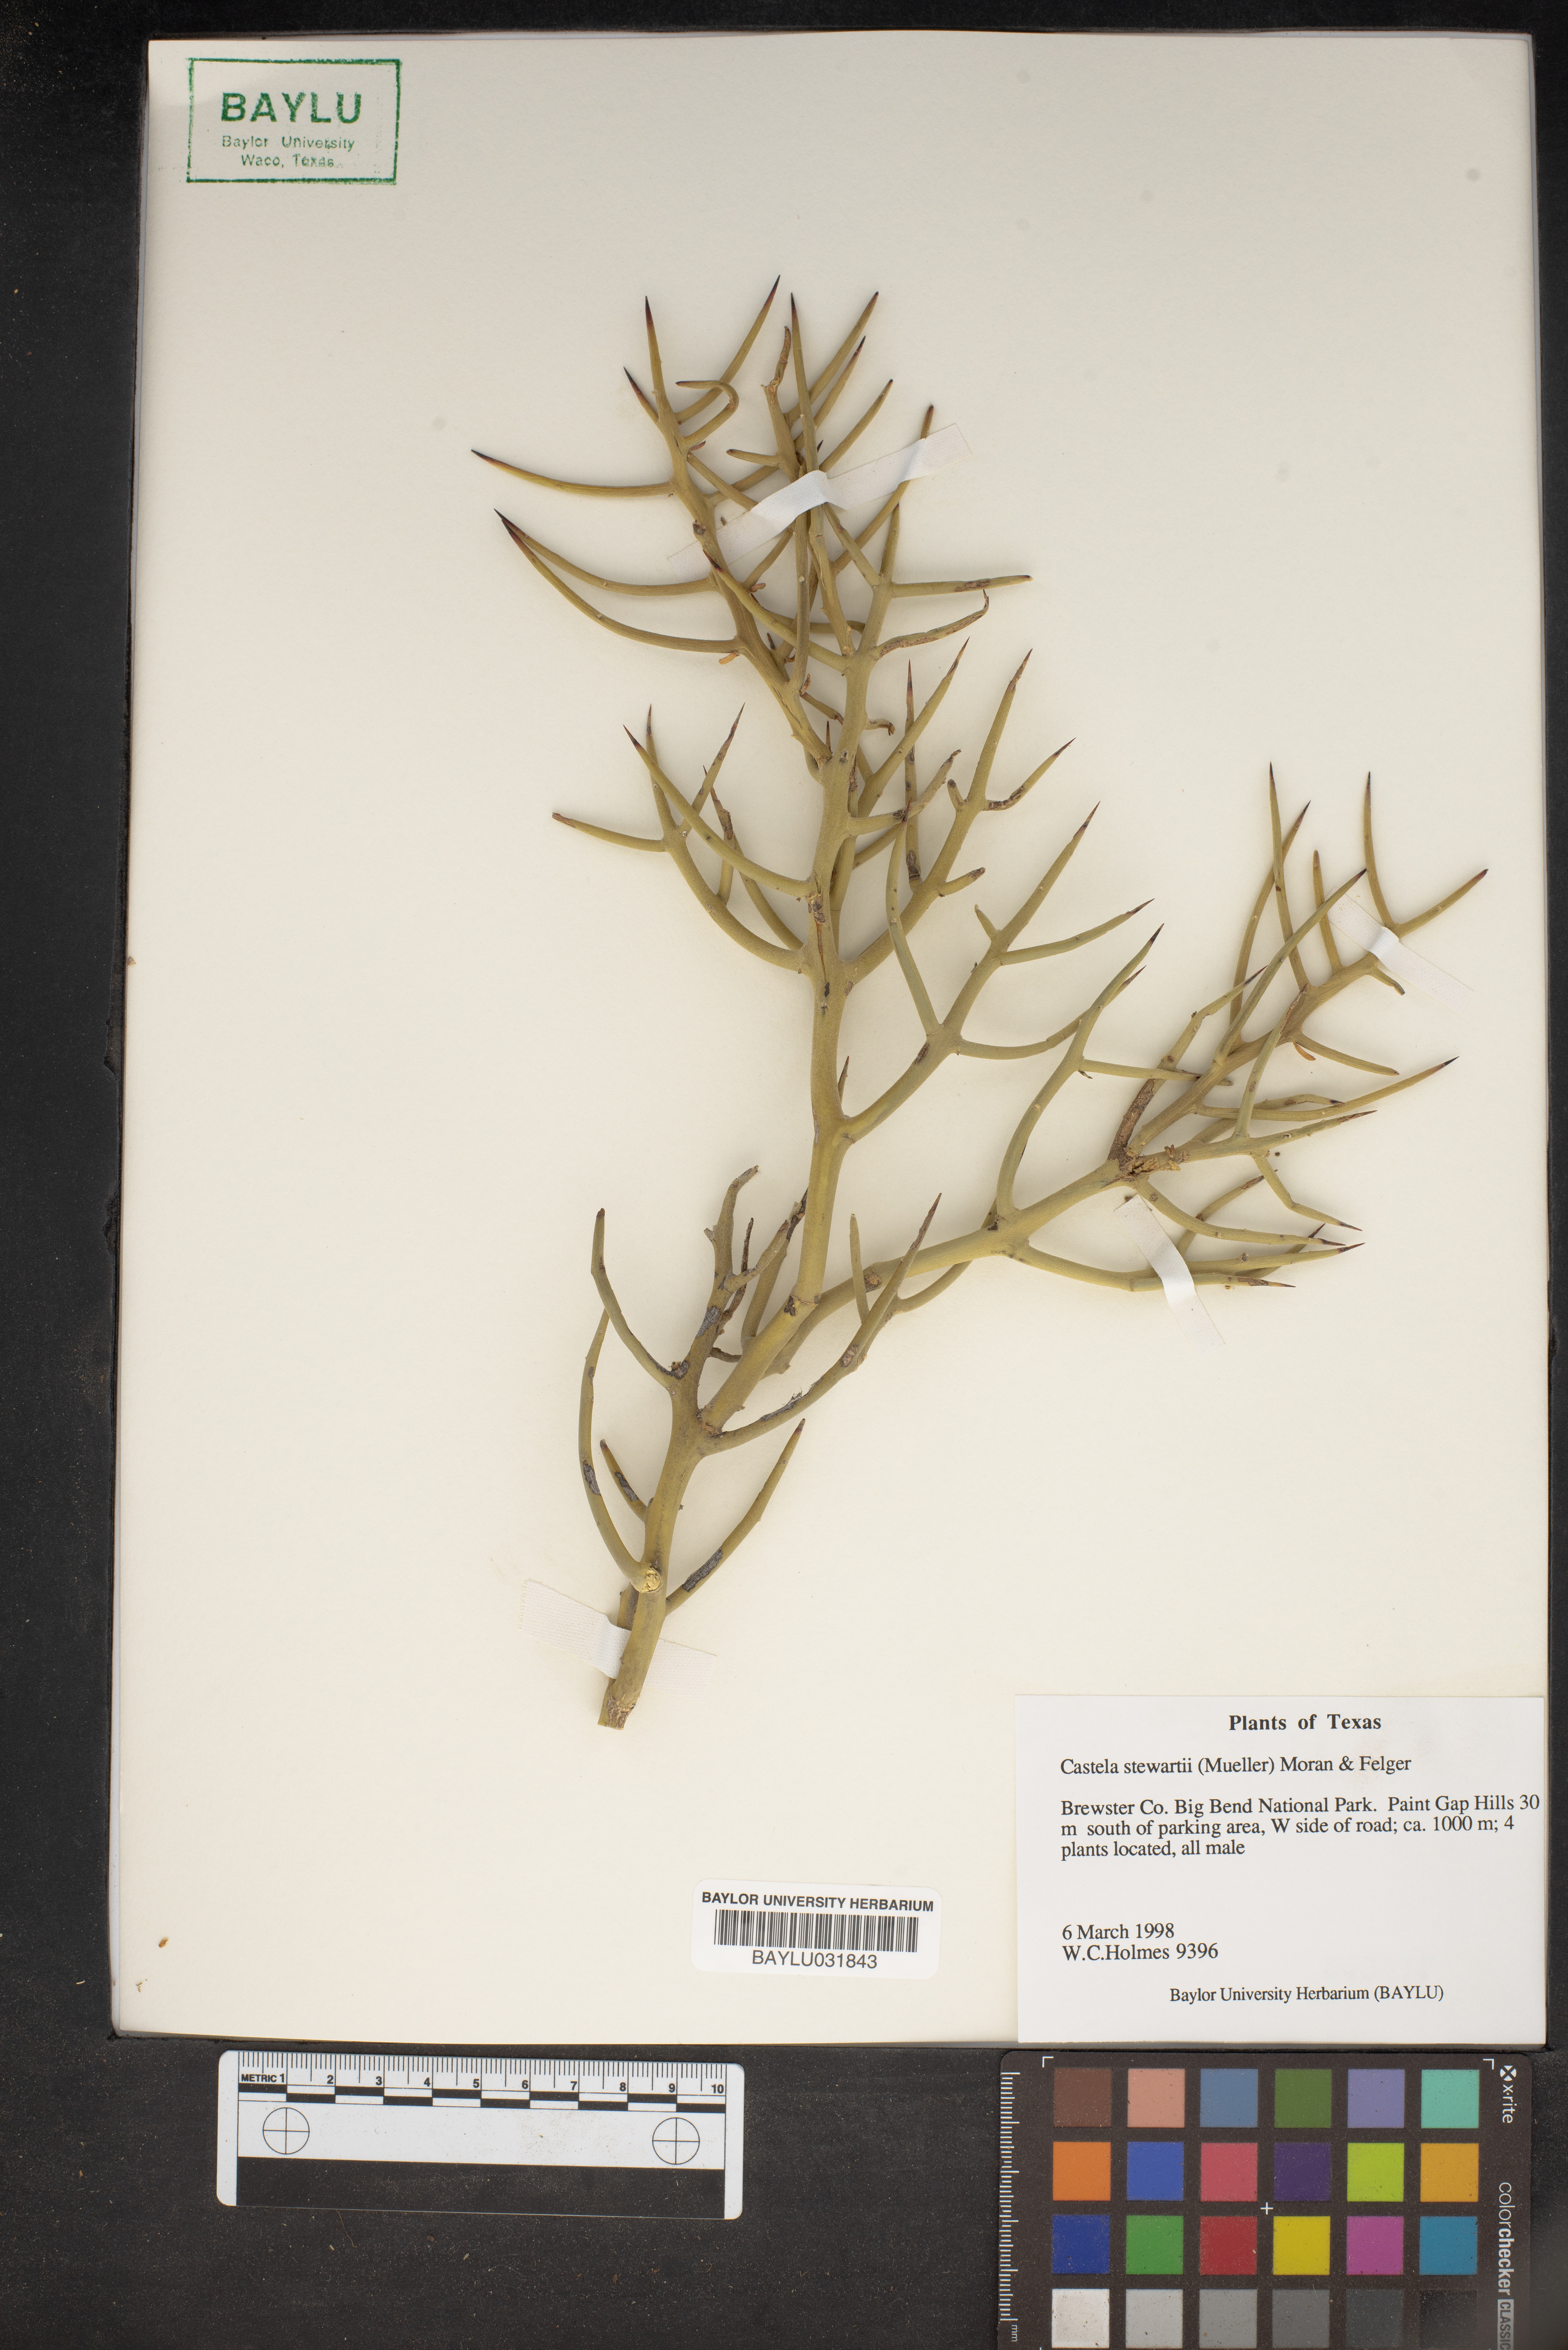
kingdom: Plantae
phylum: Tracheophyta
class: Magnoliopsida
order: Sapindales
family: Simaroubaceae
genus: Holacantha
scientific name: Holacantha stewartii
